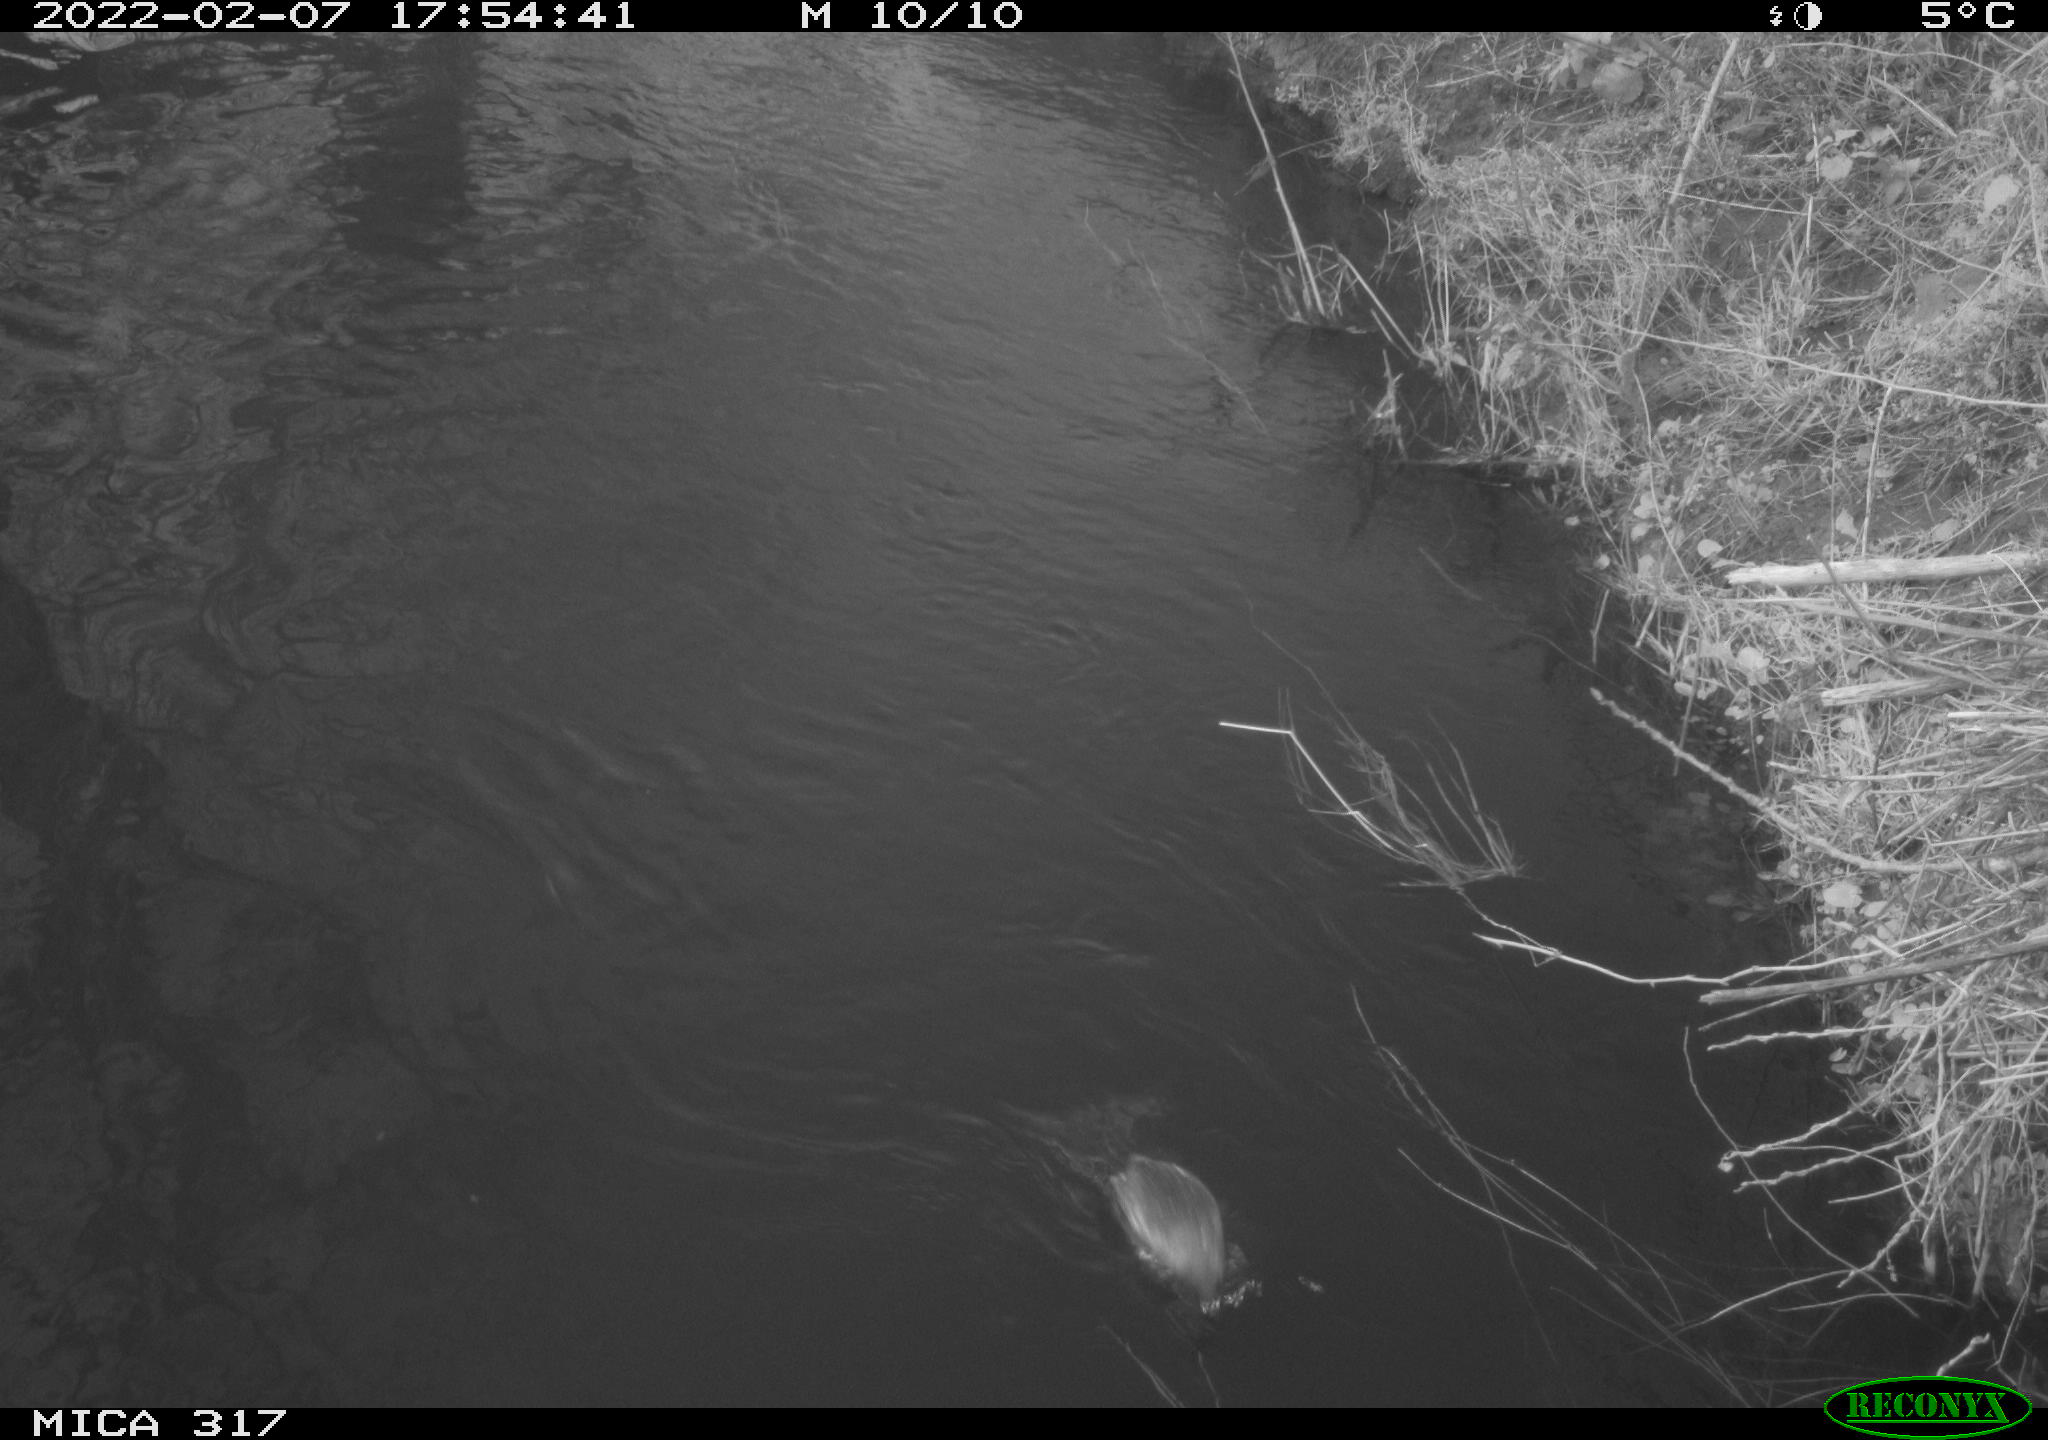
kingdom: Animalia
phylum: Chordata
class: Aves
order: Podicipediformes
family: Podicipedidae
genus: Tachybaptus
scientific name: Tachybaptus ruficollis
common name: Little grebe
